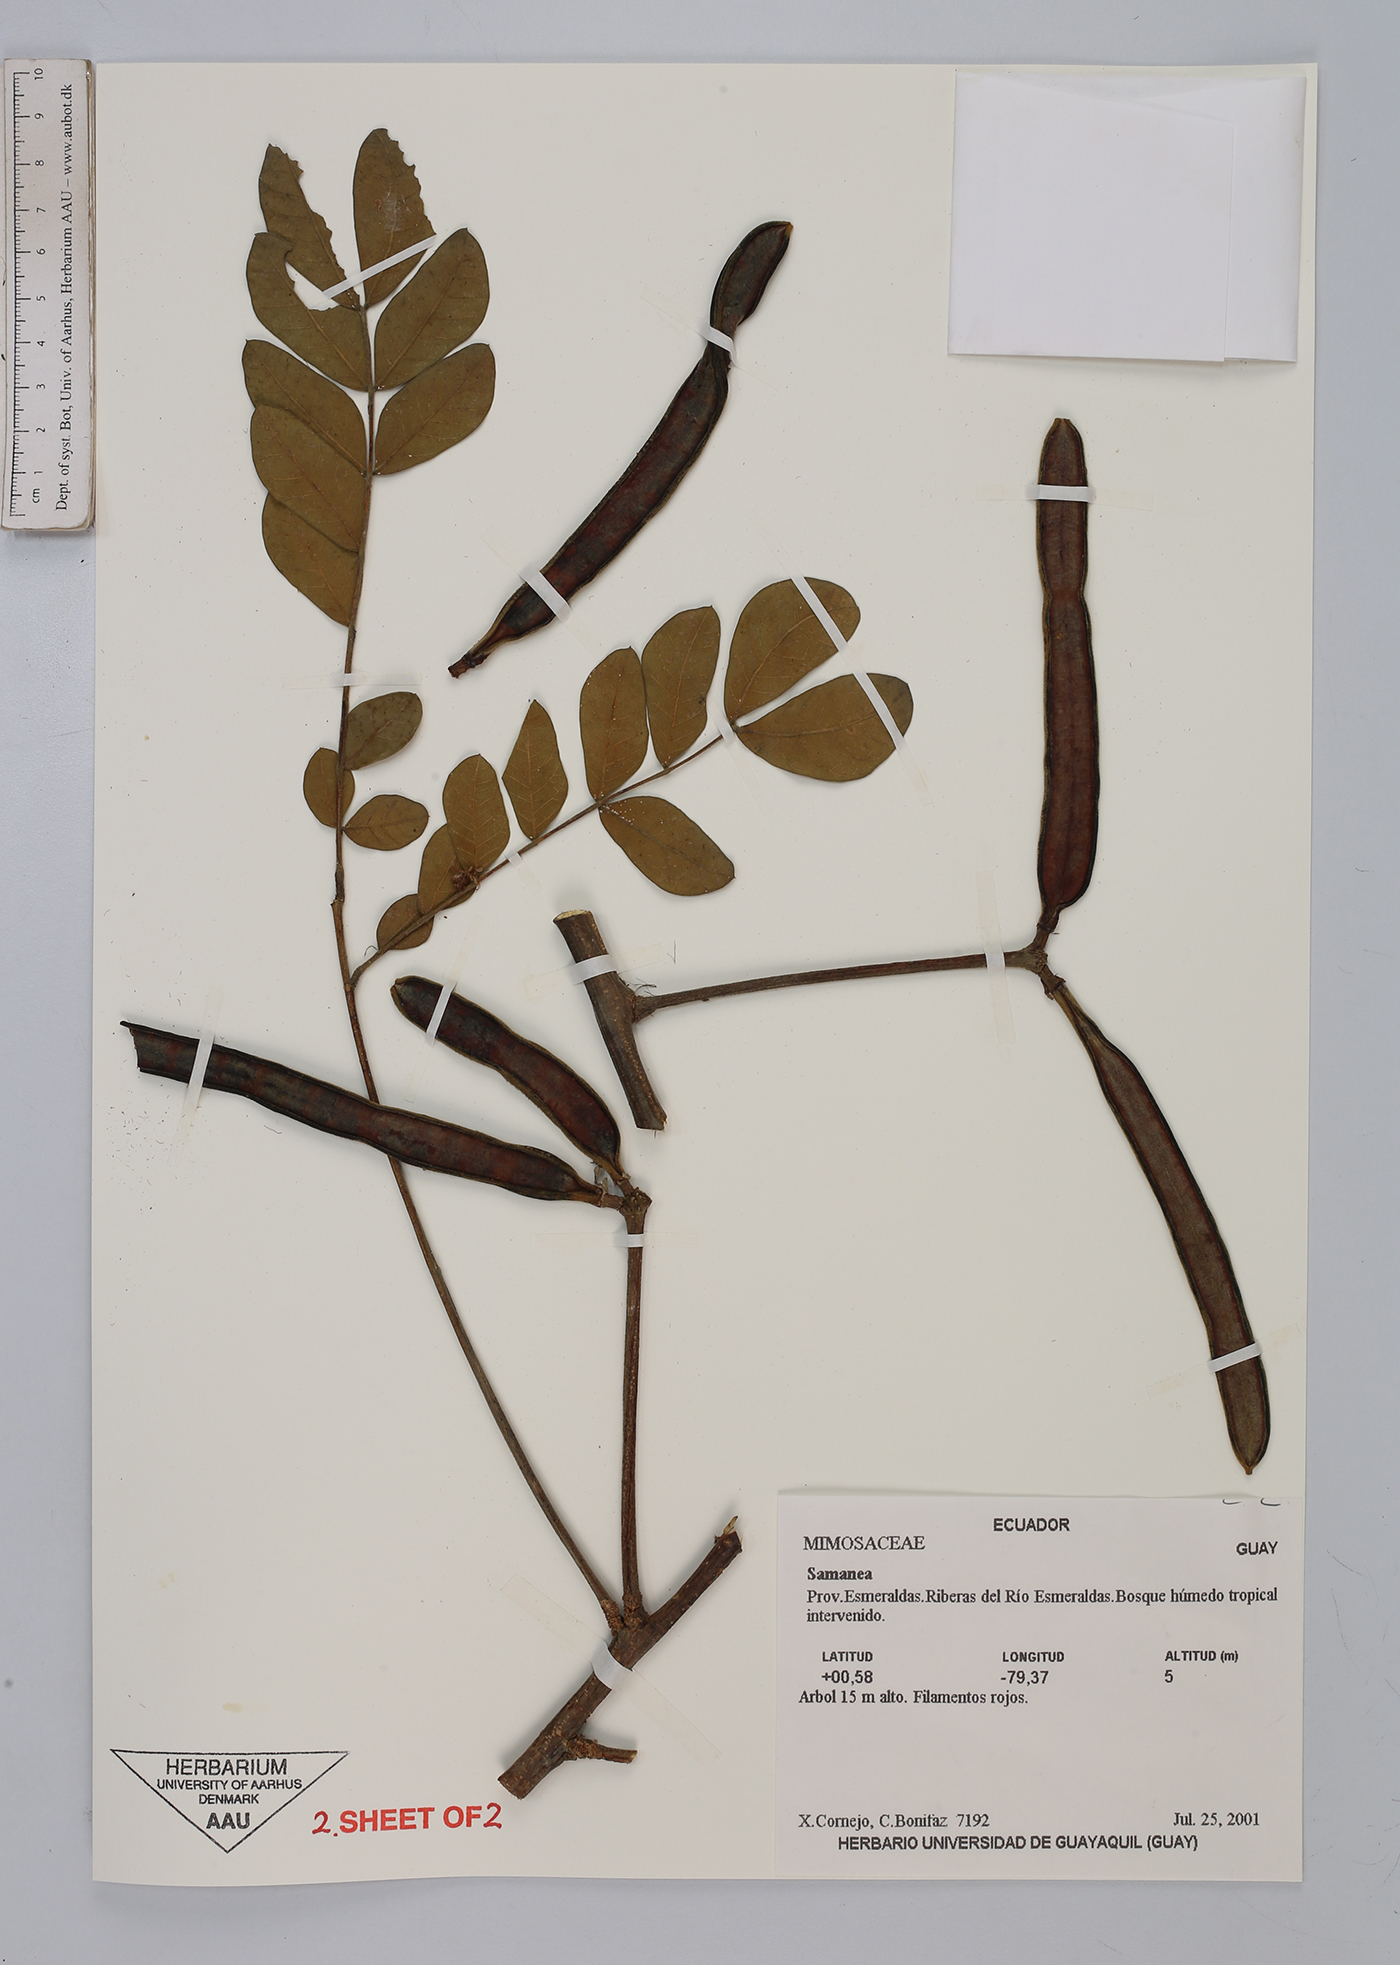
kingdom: Plantae
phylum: Tracheophyta
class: Magnoliopsida
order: Fabales
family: Fabaceae
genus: Samanea
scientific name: Samanea
